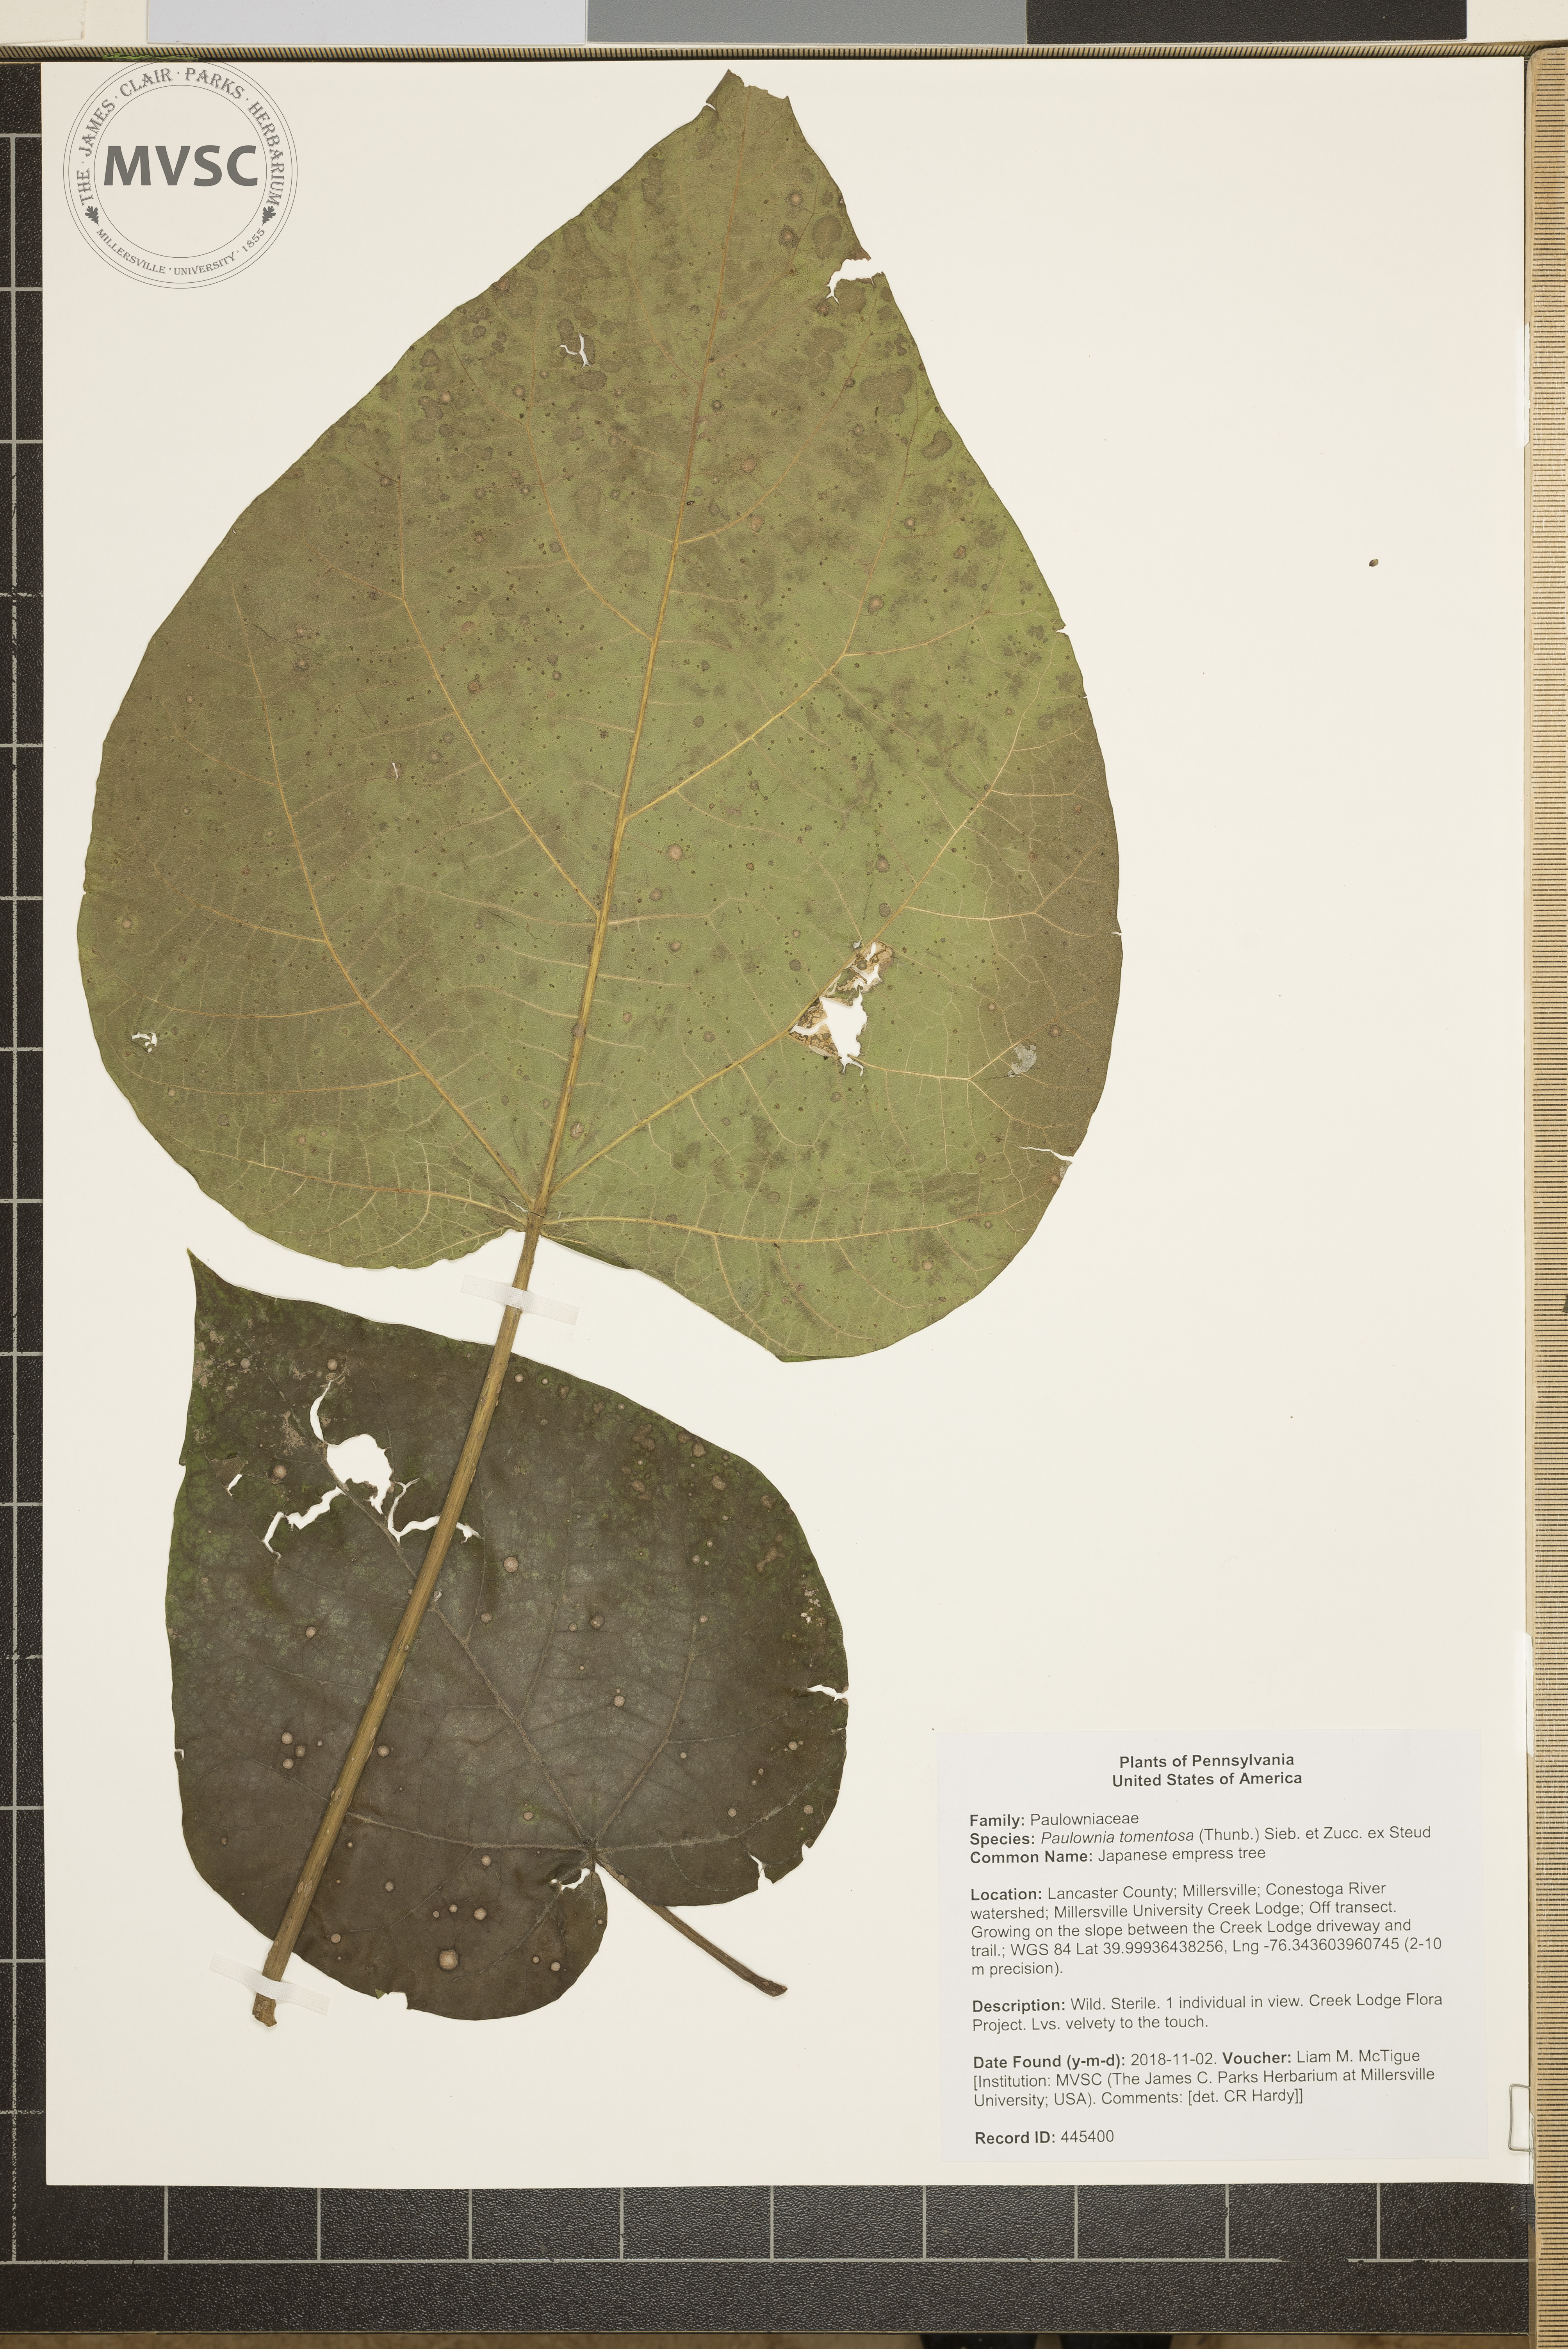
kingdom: Plantae
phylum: Tracheophyta
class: Magnoliopsida
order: Lamiales
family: Paulowniaceae
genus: Paulownia
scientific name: Paulownia tomentosa
